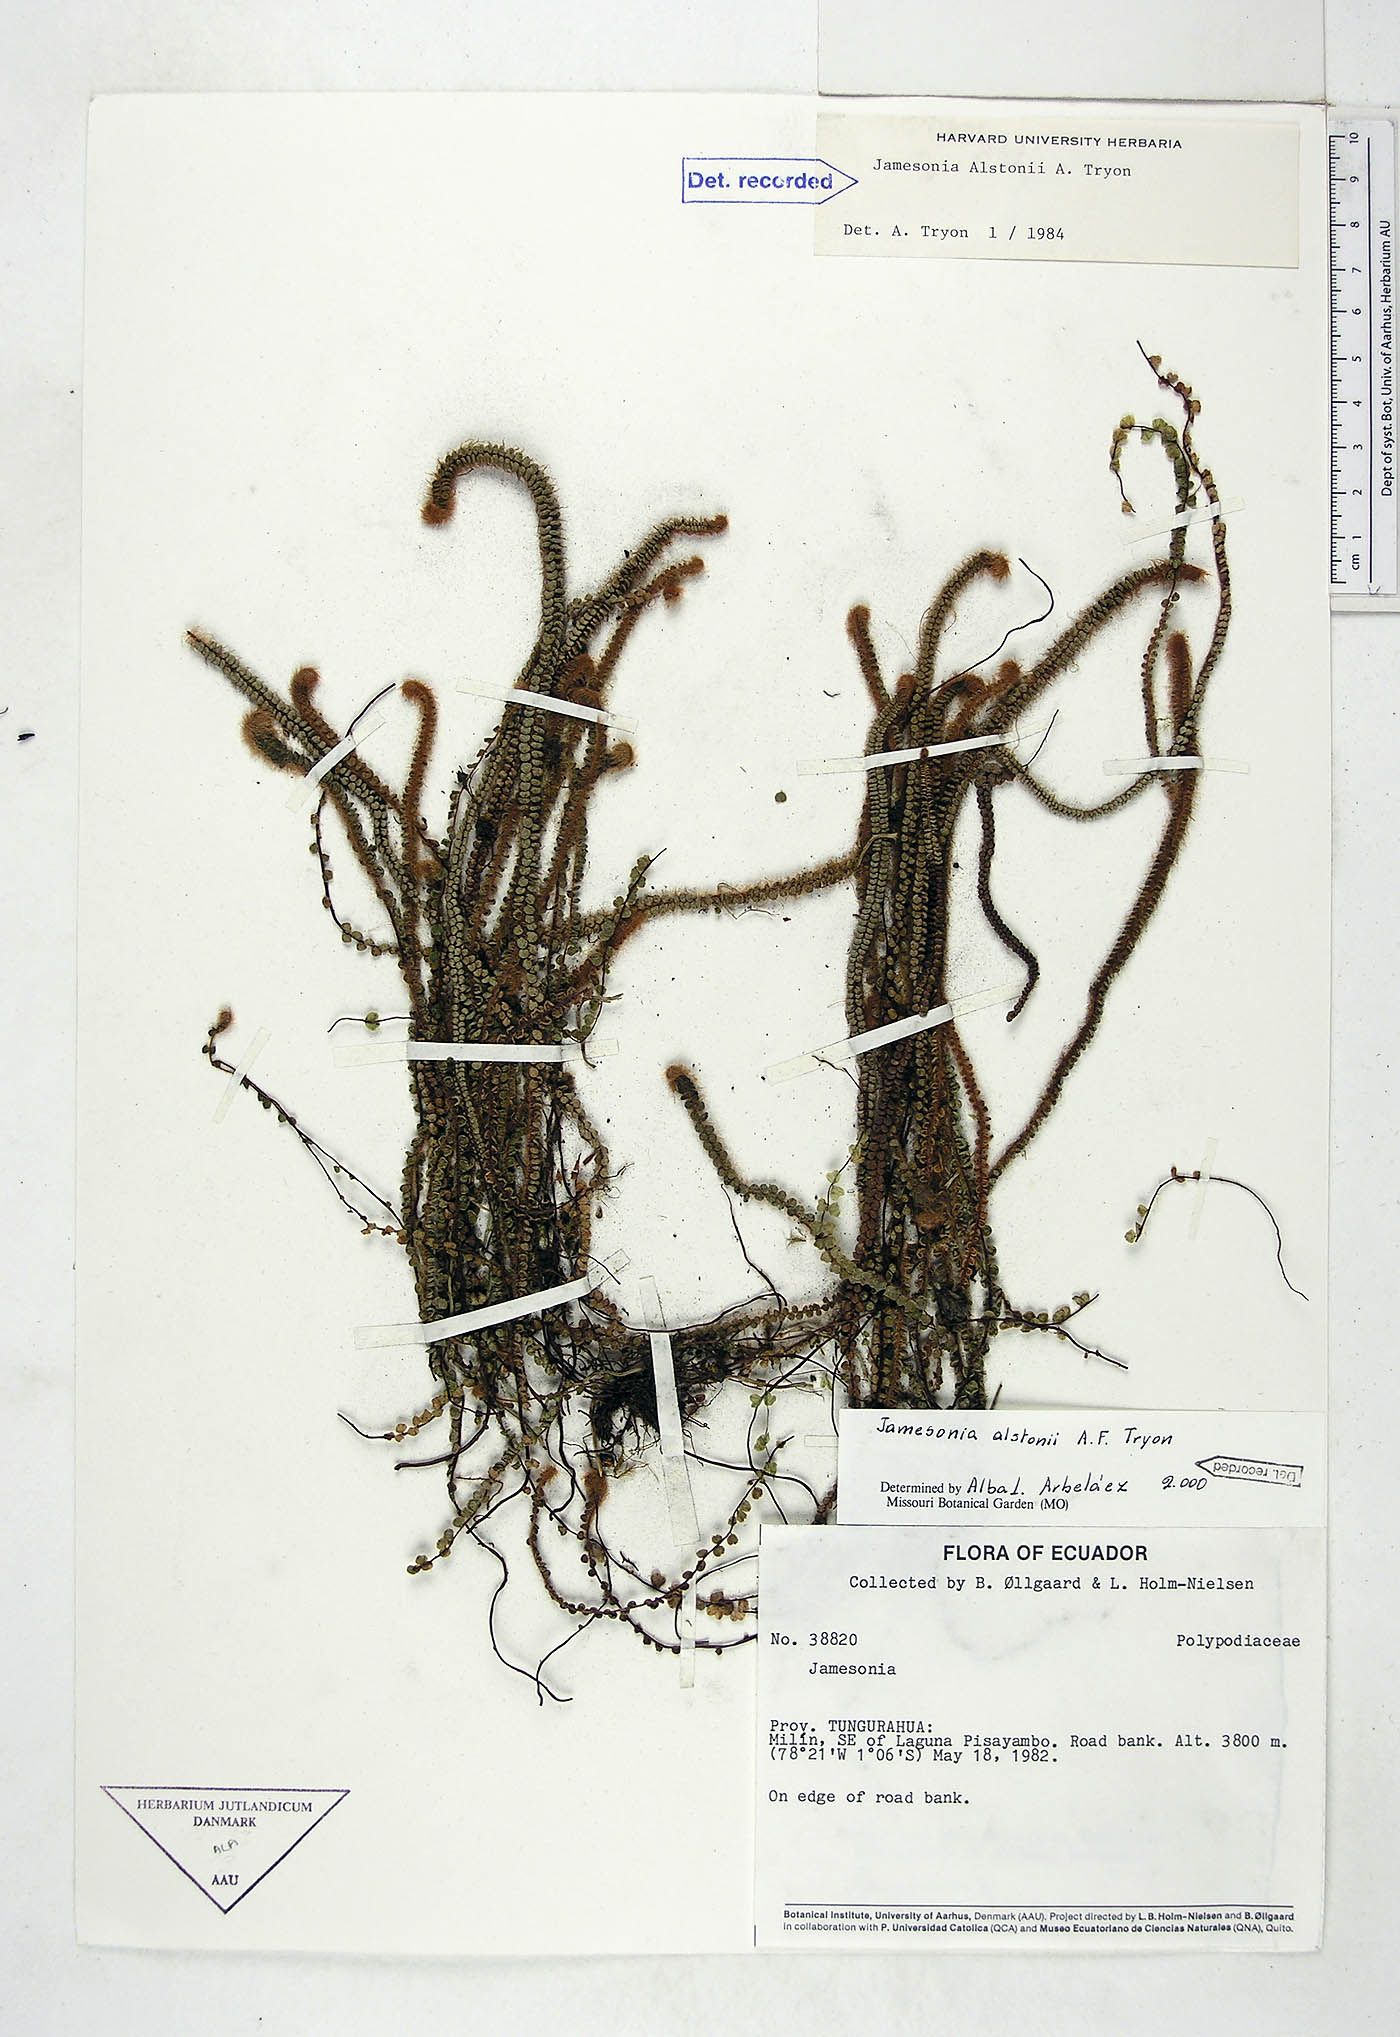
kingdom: Plantae
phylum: Tracheophyta
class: Polypodiopsida
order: Polypodiales
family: Pteridaceae
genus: Jamesonia
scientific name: Jamesonia alstonii
